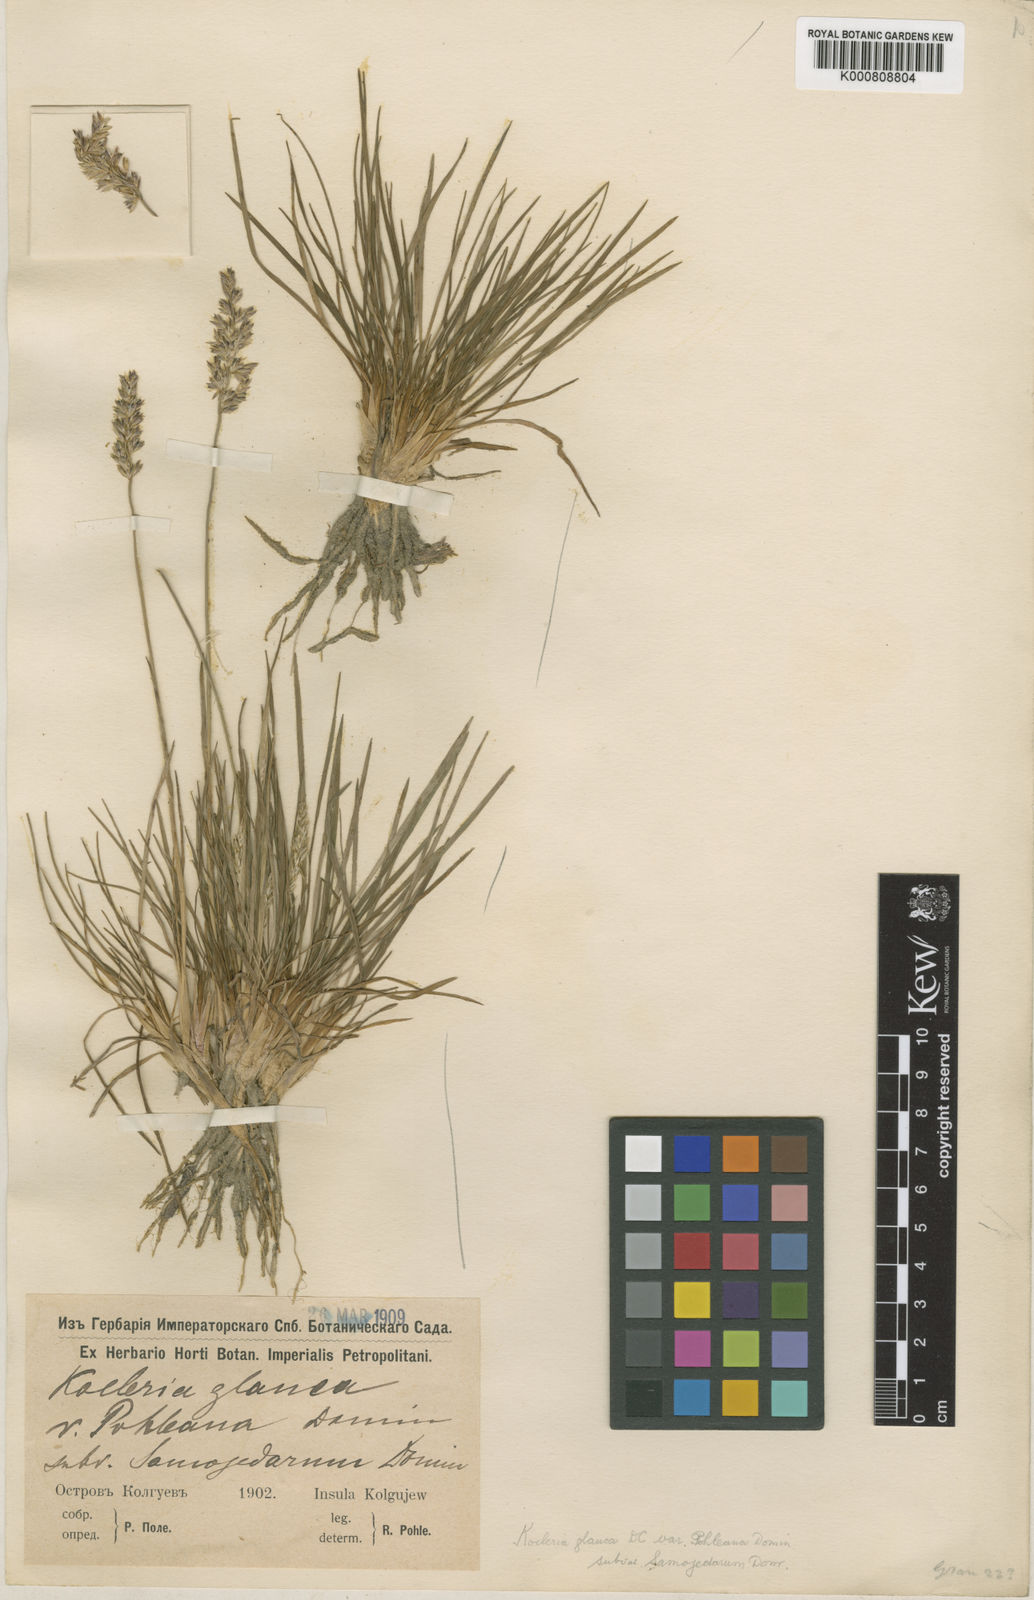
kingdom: Plantae
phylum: Tracheophyta
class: Liliopsida
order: Poales
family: Poaceae
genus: Koeleria
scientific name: Koeleria glauca
